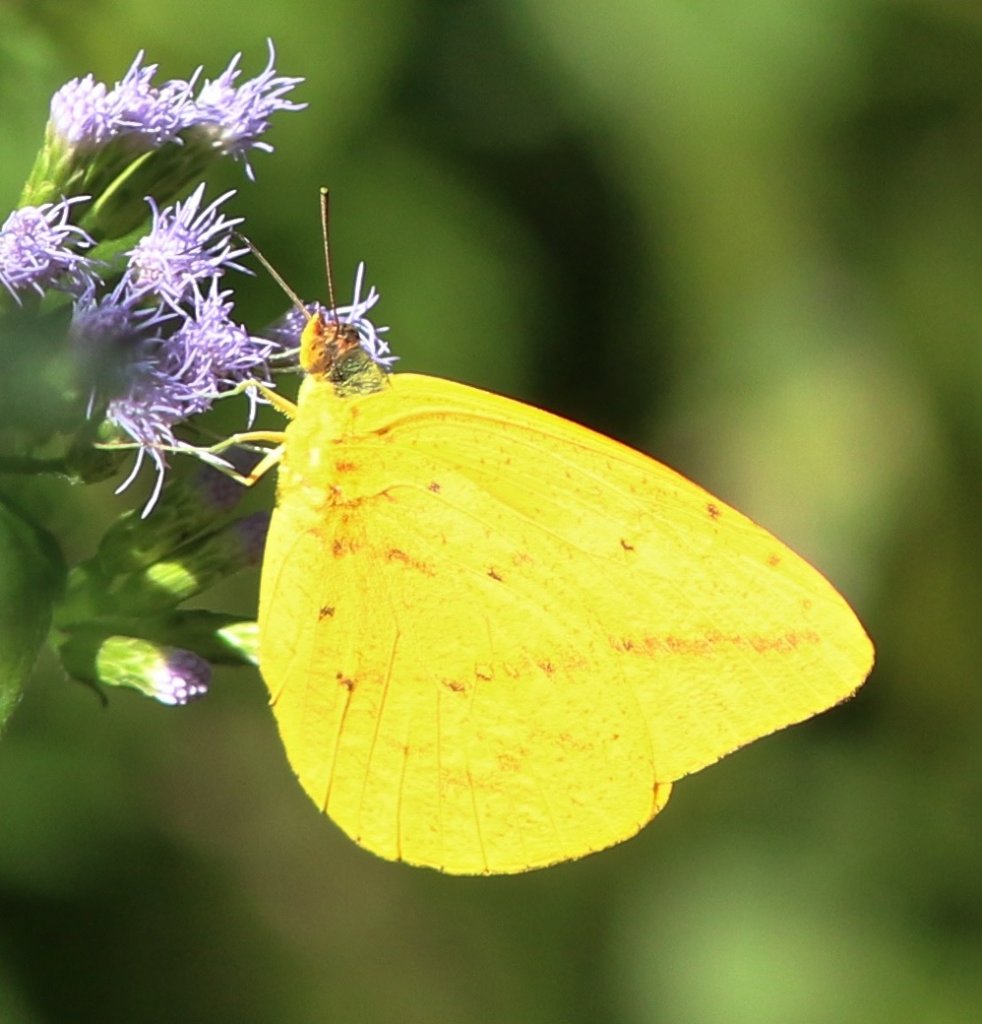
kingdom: Animalia
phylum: Arthropoda
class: Insecta
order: Lepidoptera
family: Pieridae
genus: Phoebis
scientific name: Phoebis agarithe
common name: Large Orange Sulphur
